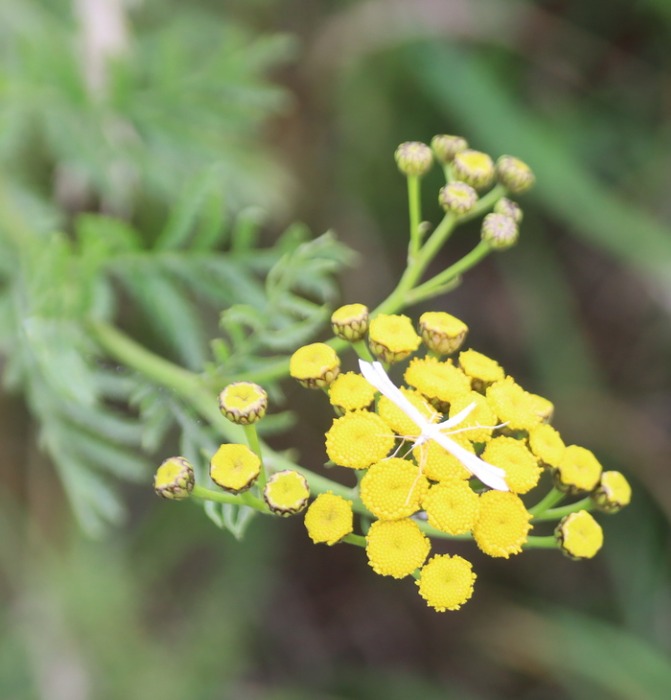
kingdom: Plantae
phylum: Tracheophyta
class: Magnoliopsida
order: Asterales
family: Asteraceae
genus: Tanacetum
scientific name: Tanacetum vulgare
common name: Rejnfan
